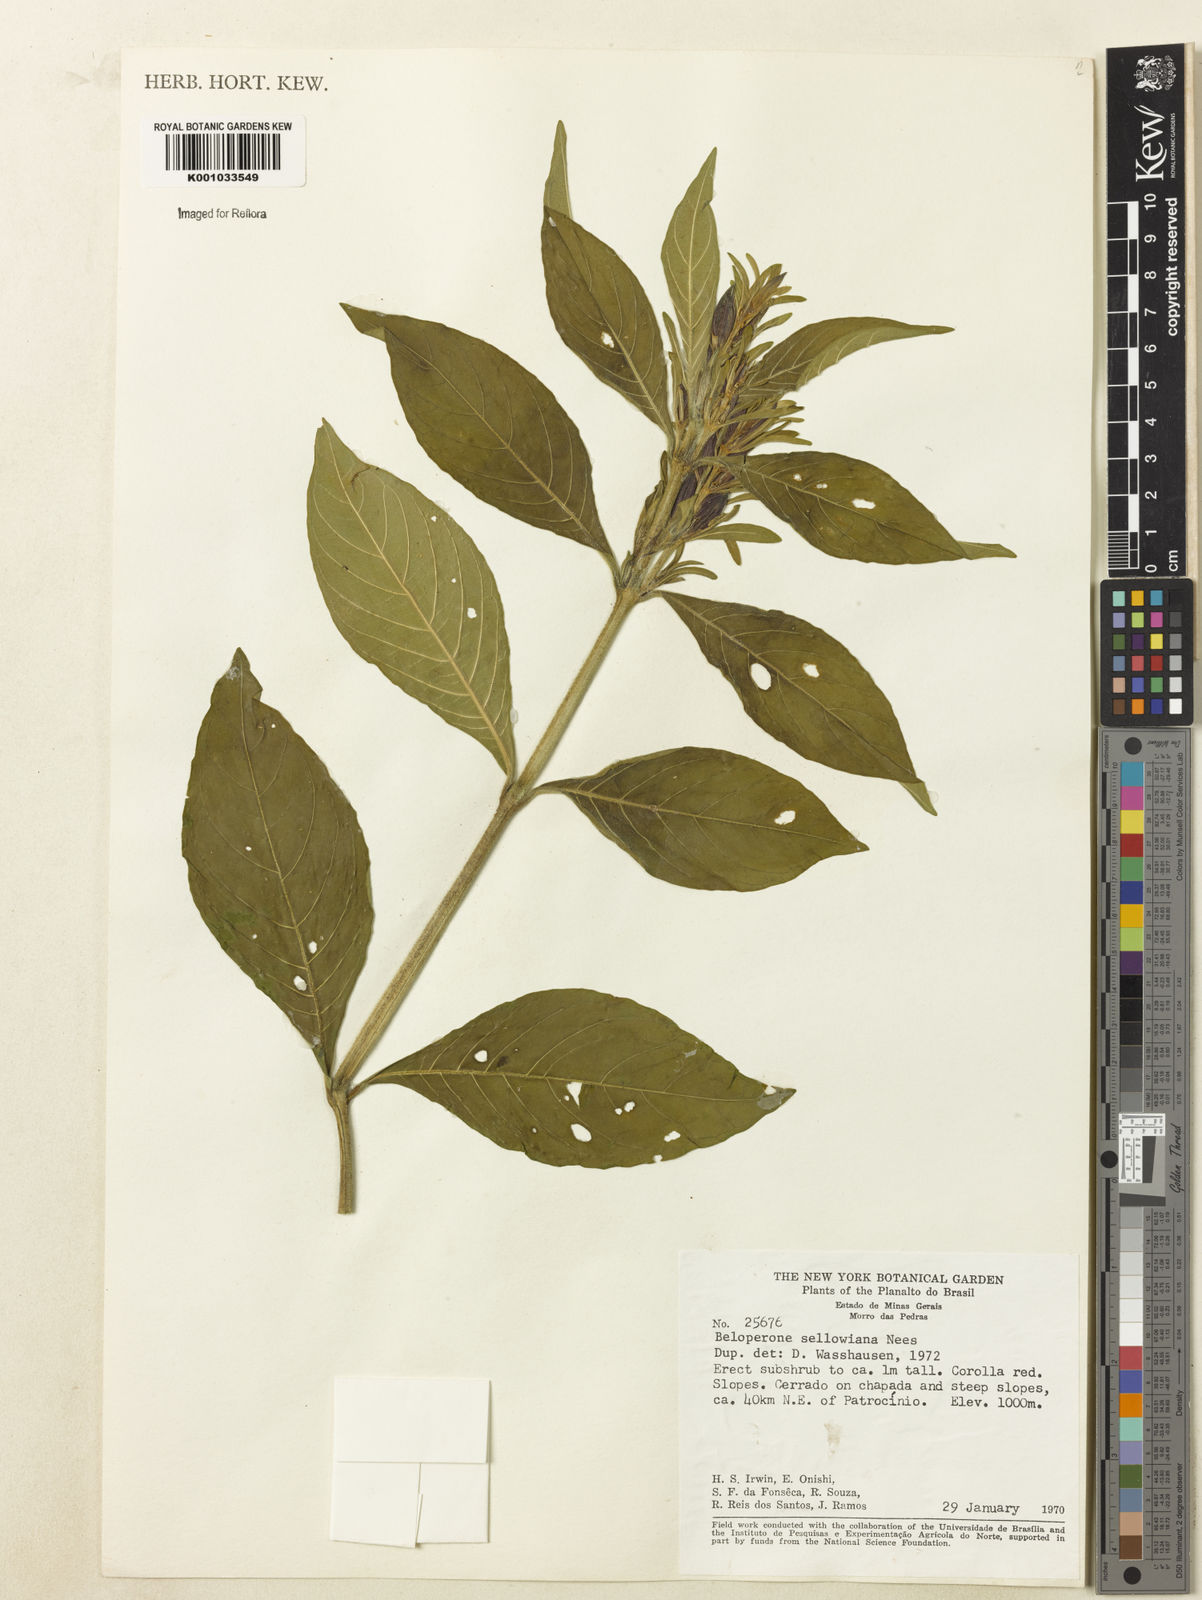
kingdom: Plantae
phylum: Tracheophyta
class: Magnoliopsida
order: Lamiales
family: Acanthaceae
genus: Justicia
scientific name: Justicia sellowiana
